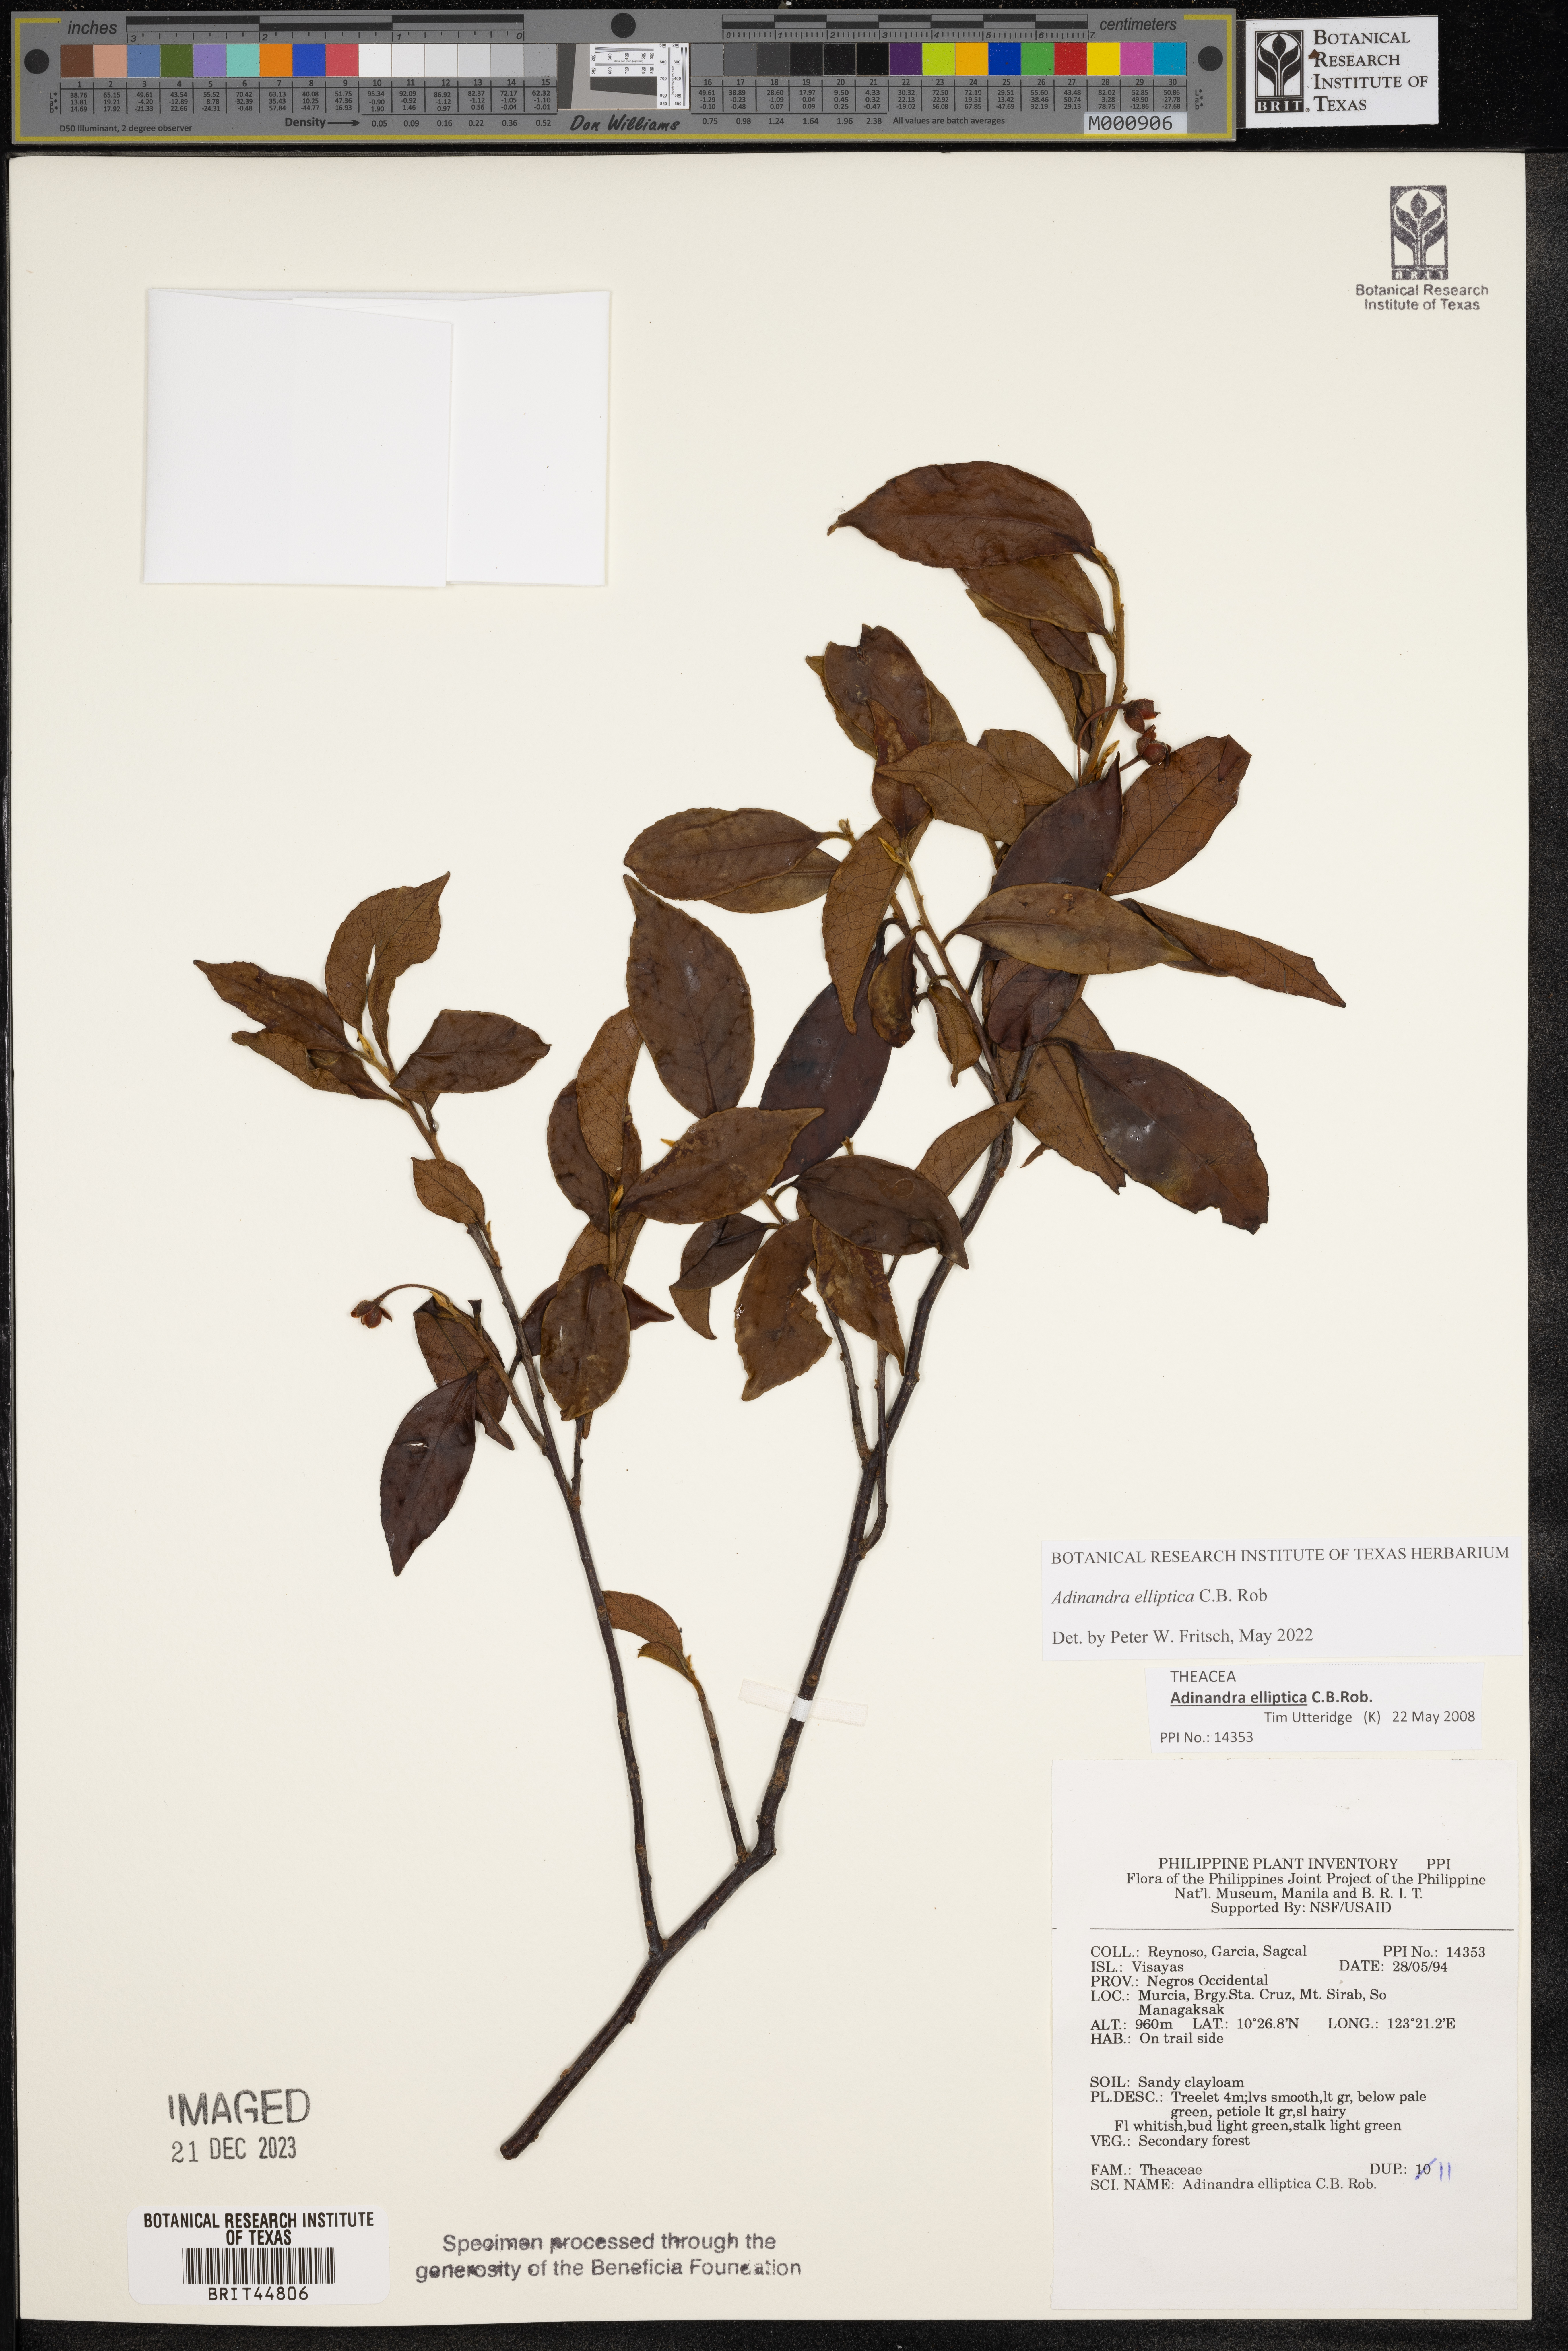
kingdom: Plantae
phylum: Tracheophyta
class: Magnoliopsida
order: Ericales
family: Pentaphylacaceae
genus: Adinandra
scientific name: Adinandra elliptica
